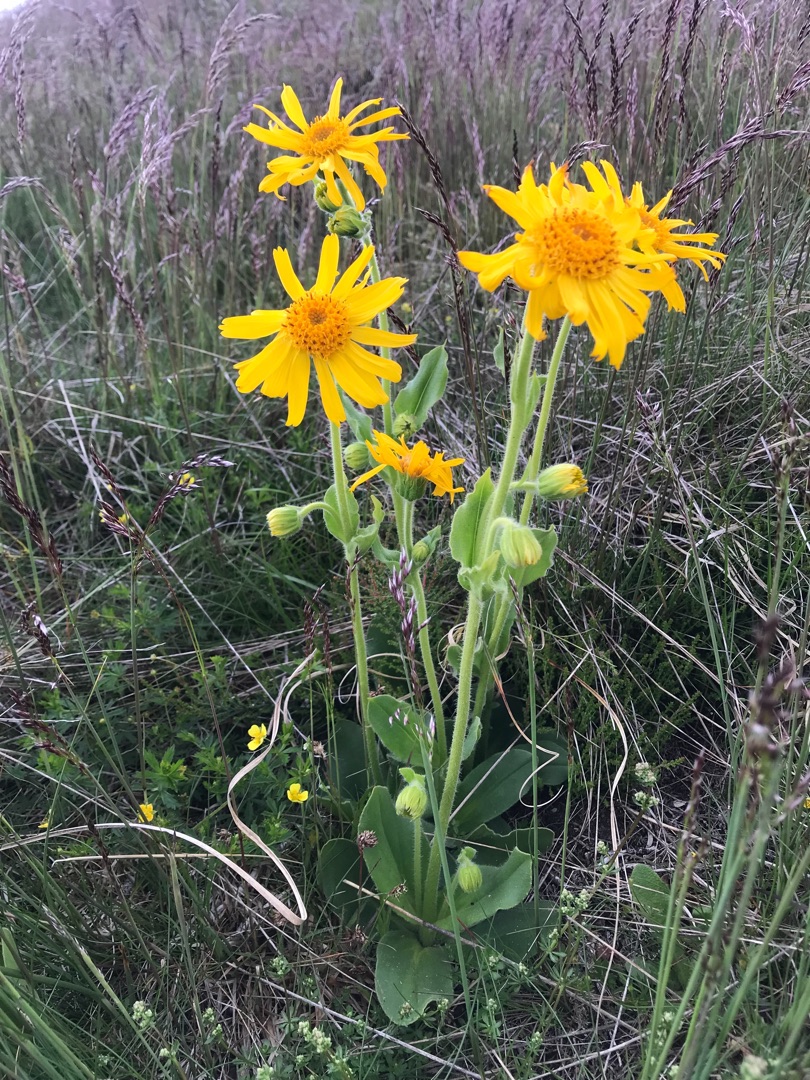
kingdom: Plantae
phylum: Tracheophyta
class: Magnoliopsida
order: Asterales
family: Asteraceae
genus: Arnica
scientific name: Arnica montana
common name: Guldblomme
